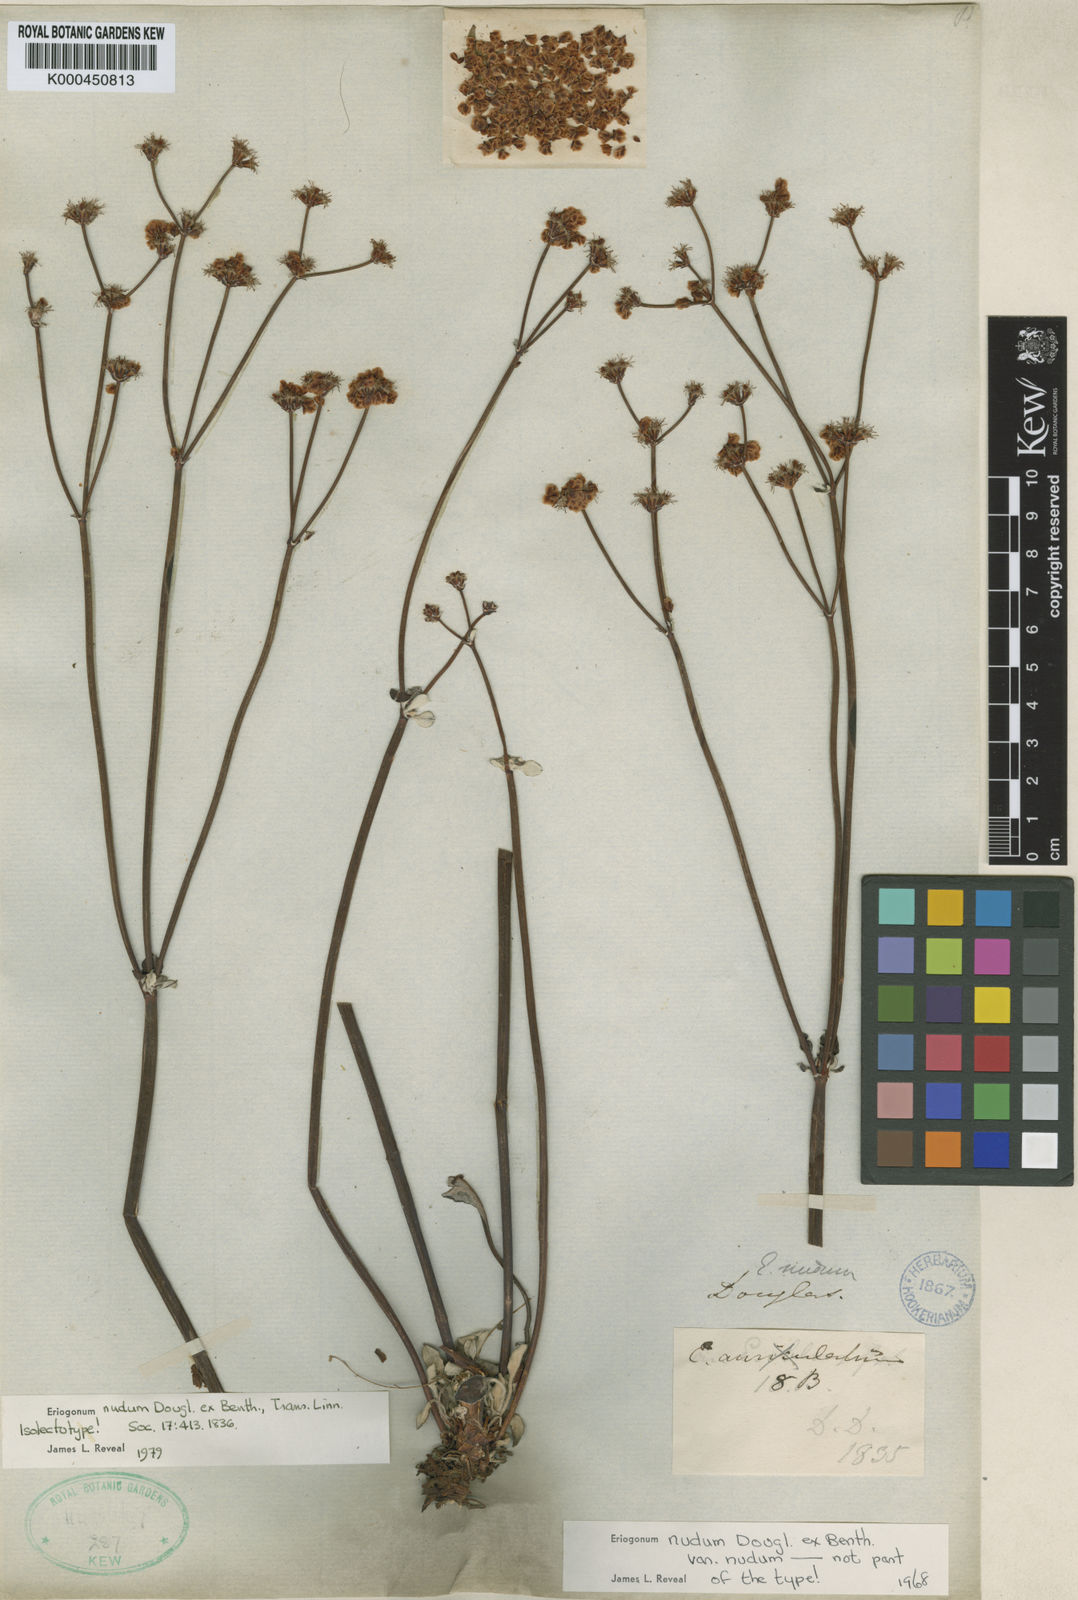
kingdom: Plantae
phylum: Tracheophyta
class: Magnoliopsida
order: Caryophyllales
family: Polygonaceae
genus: Eriogonum
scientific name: Eriogonum nudum
